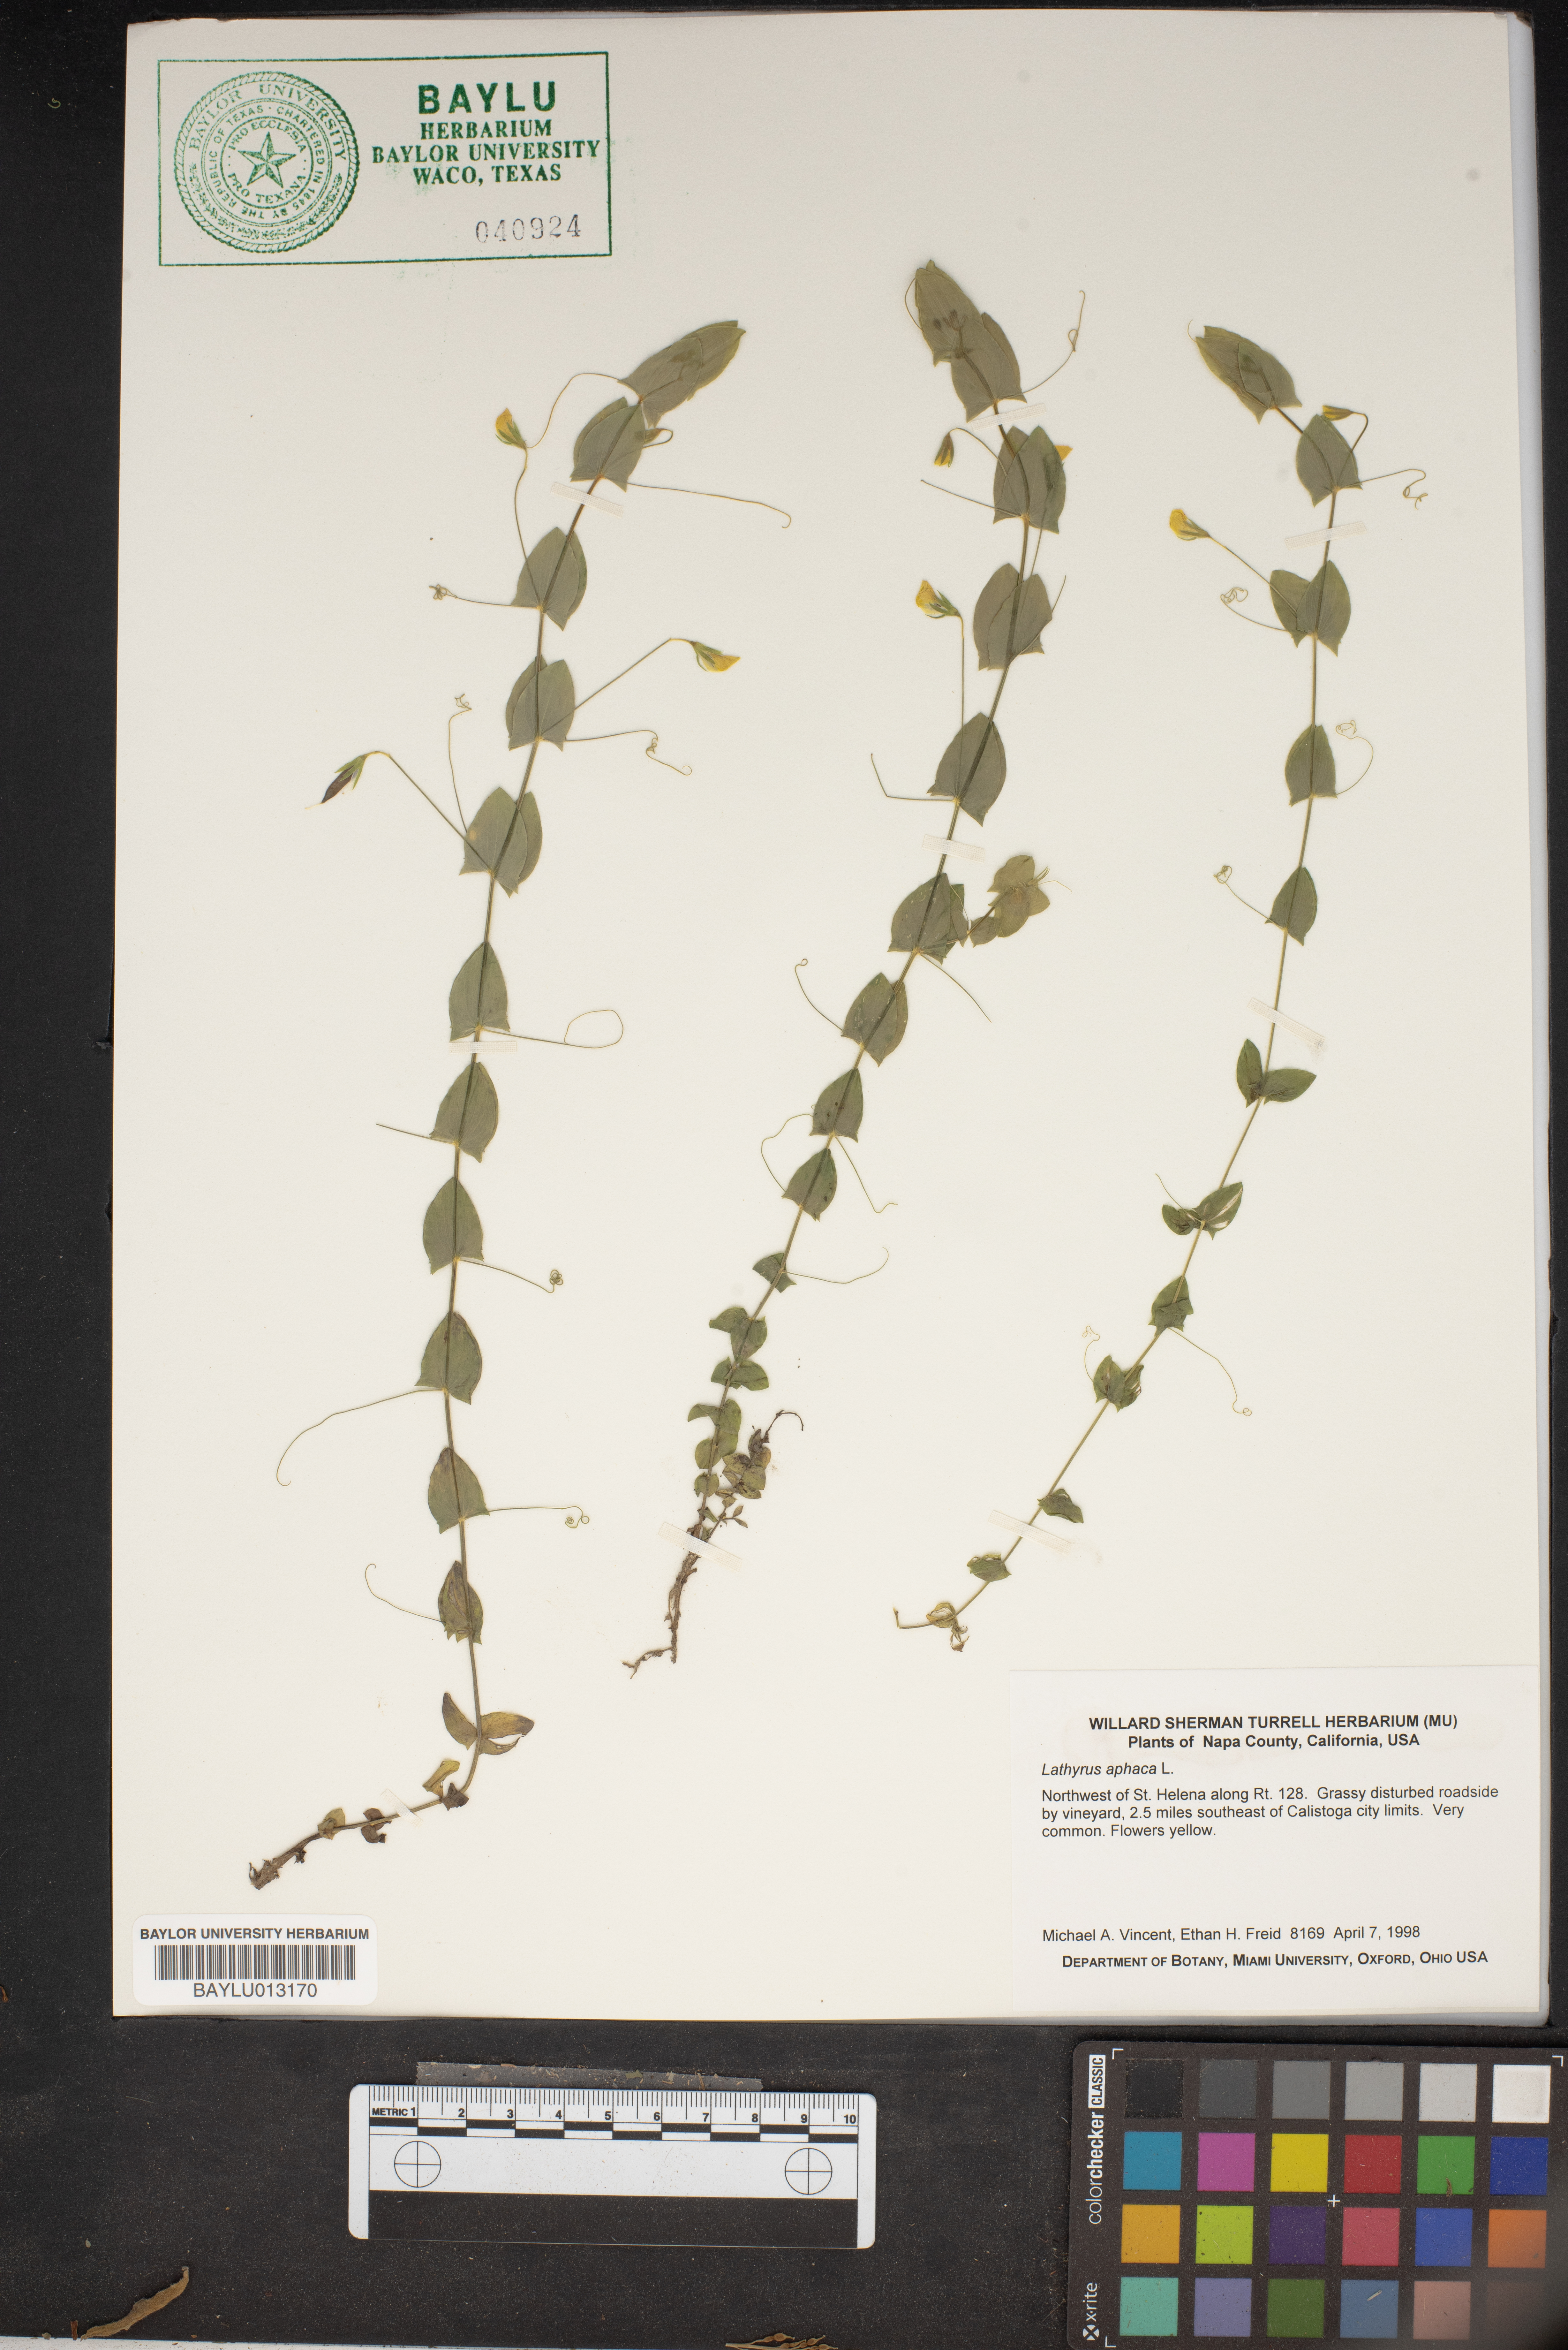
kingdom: Plantae
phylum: Tracheophyta
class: Magnoliopsida
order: Fabales
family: Fabaceae
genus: Lathyrus
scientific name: Lathyrus aphaca
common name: Yellow vetchling
